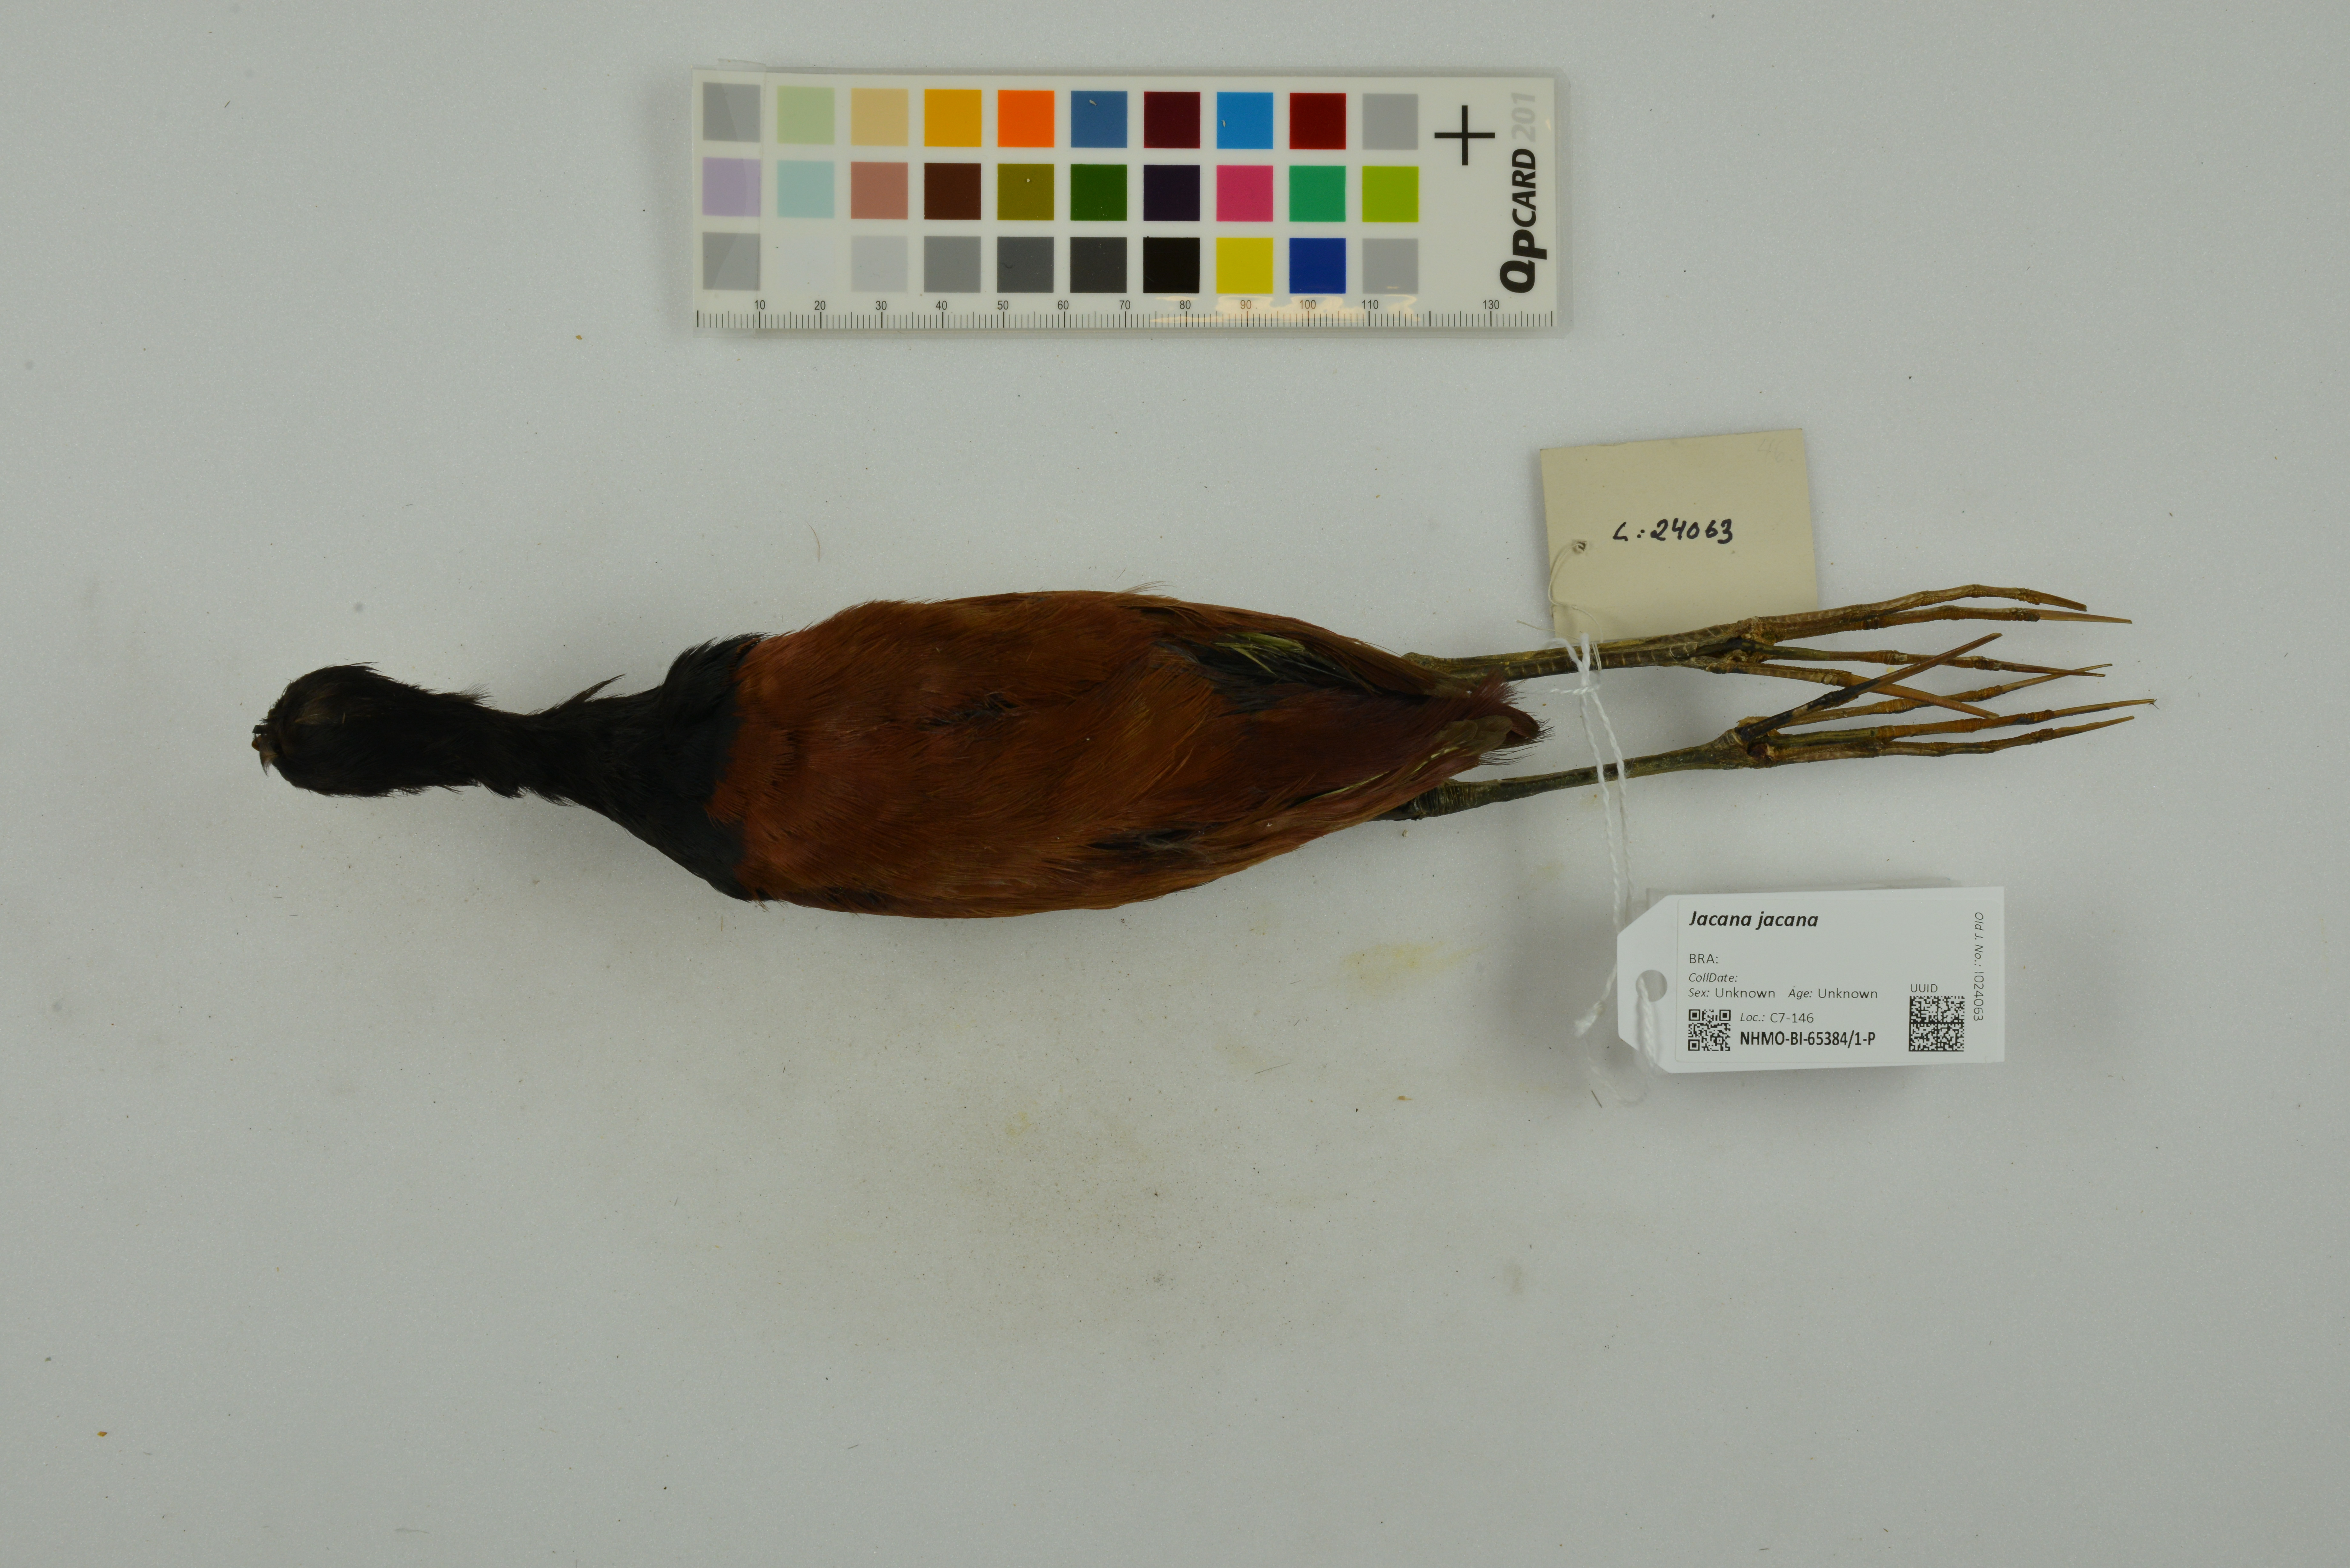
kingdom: Animalia
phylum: Chordata
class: Aves
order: Charadriiformes
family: Jacanidae
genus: Jacana
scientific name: Jacana jacana
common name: Wattled jacana
